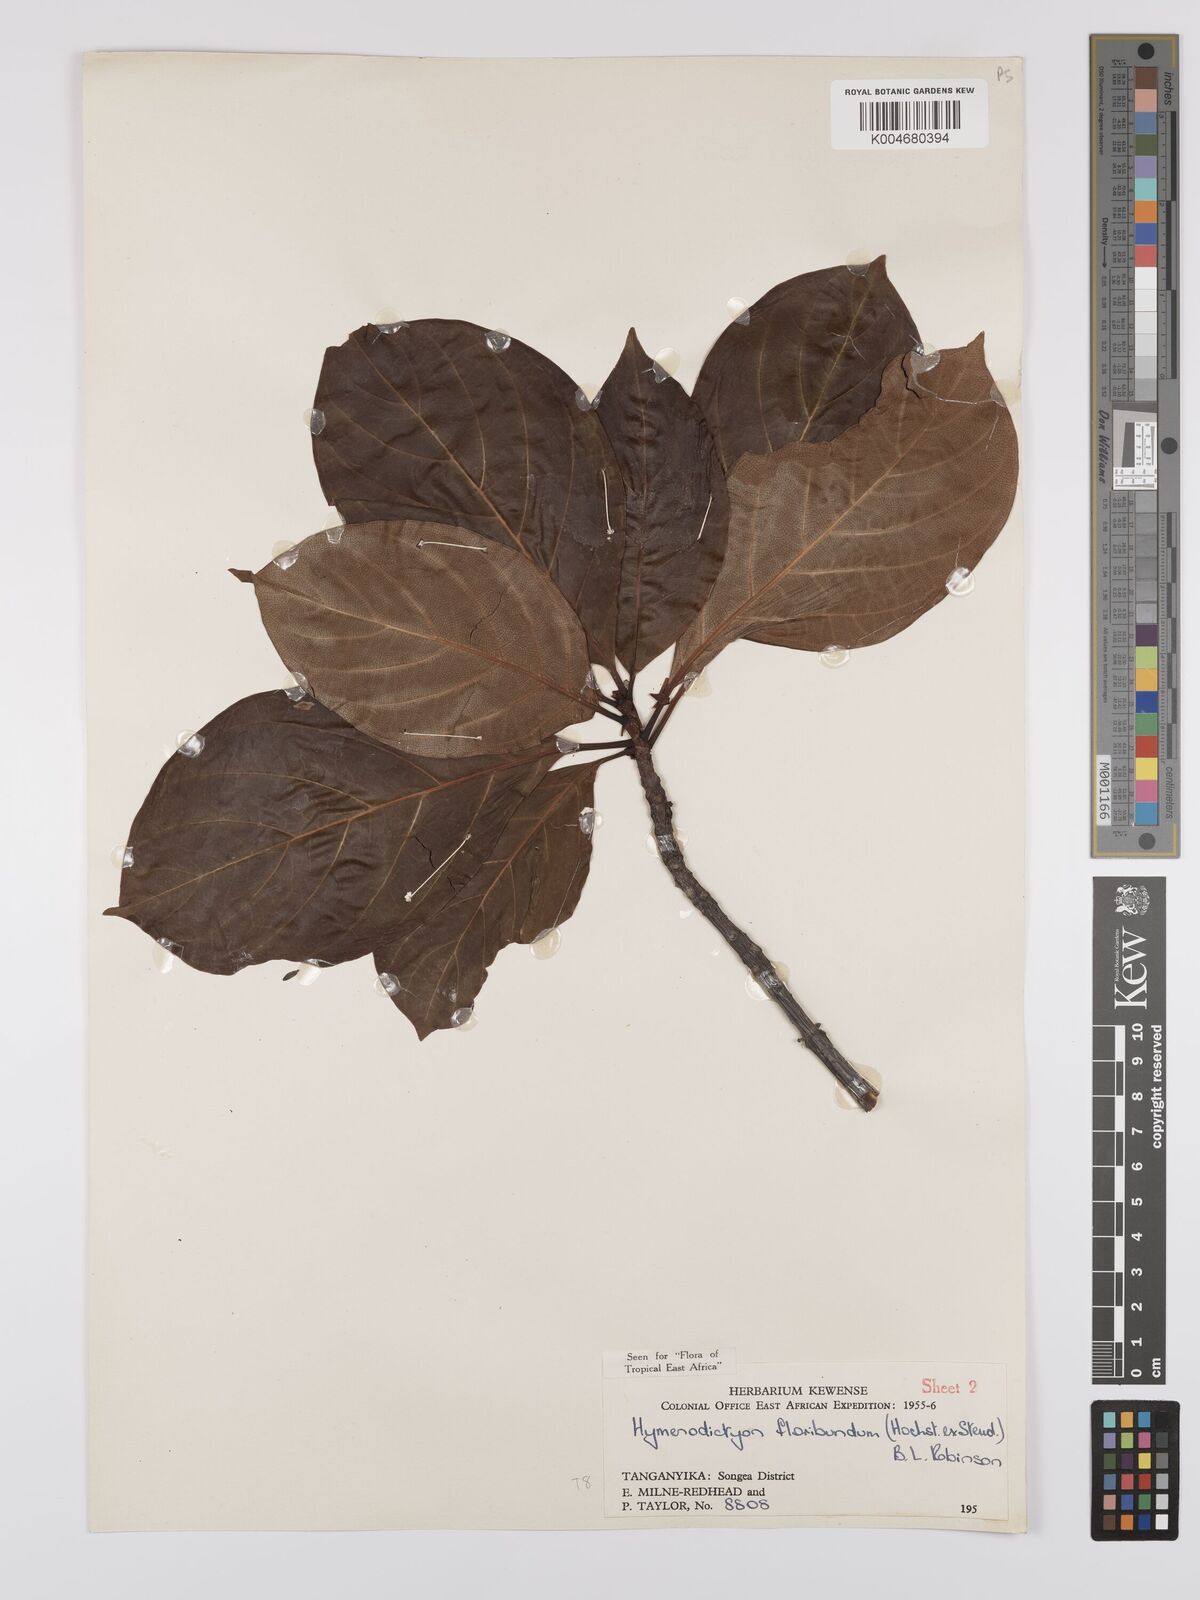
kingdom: Plantae
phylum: Tracheophyta
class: Magnoliopsida
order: Gentianales
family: Rubiaceae
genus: Hymenodictyon
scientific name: Hymenodictyon floribundum
